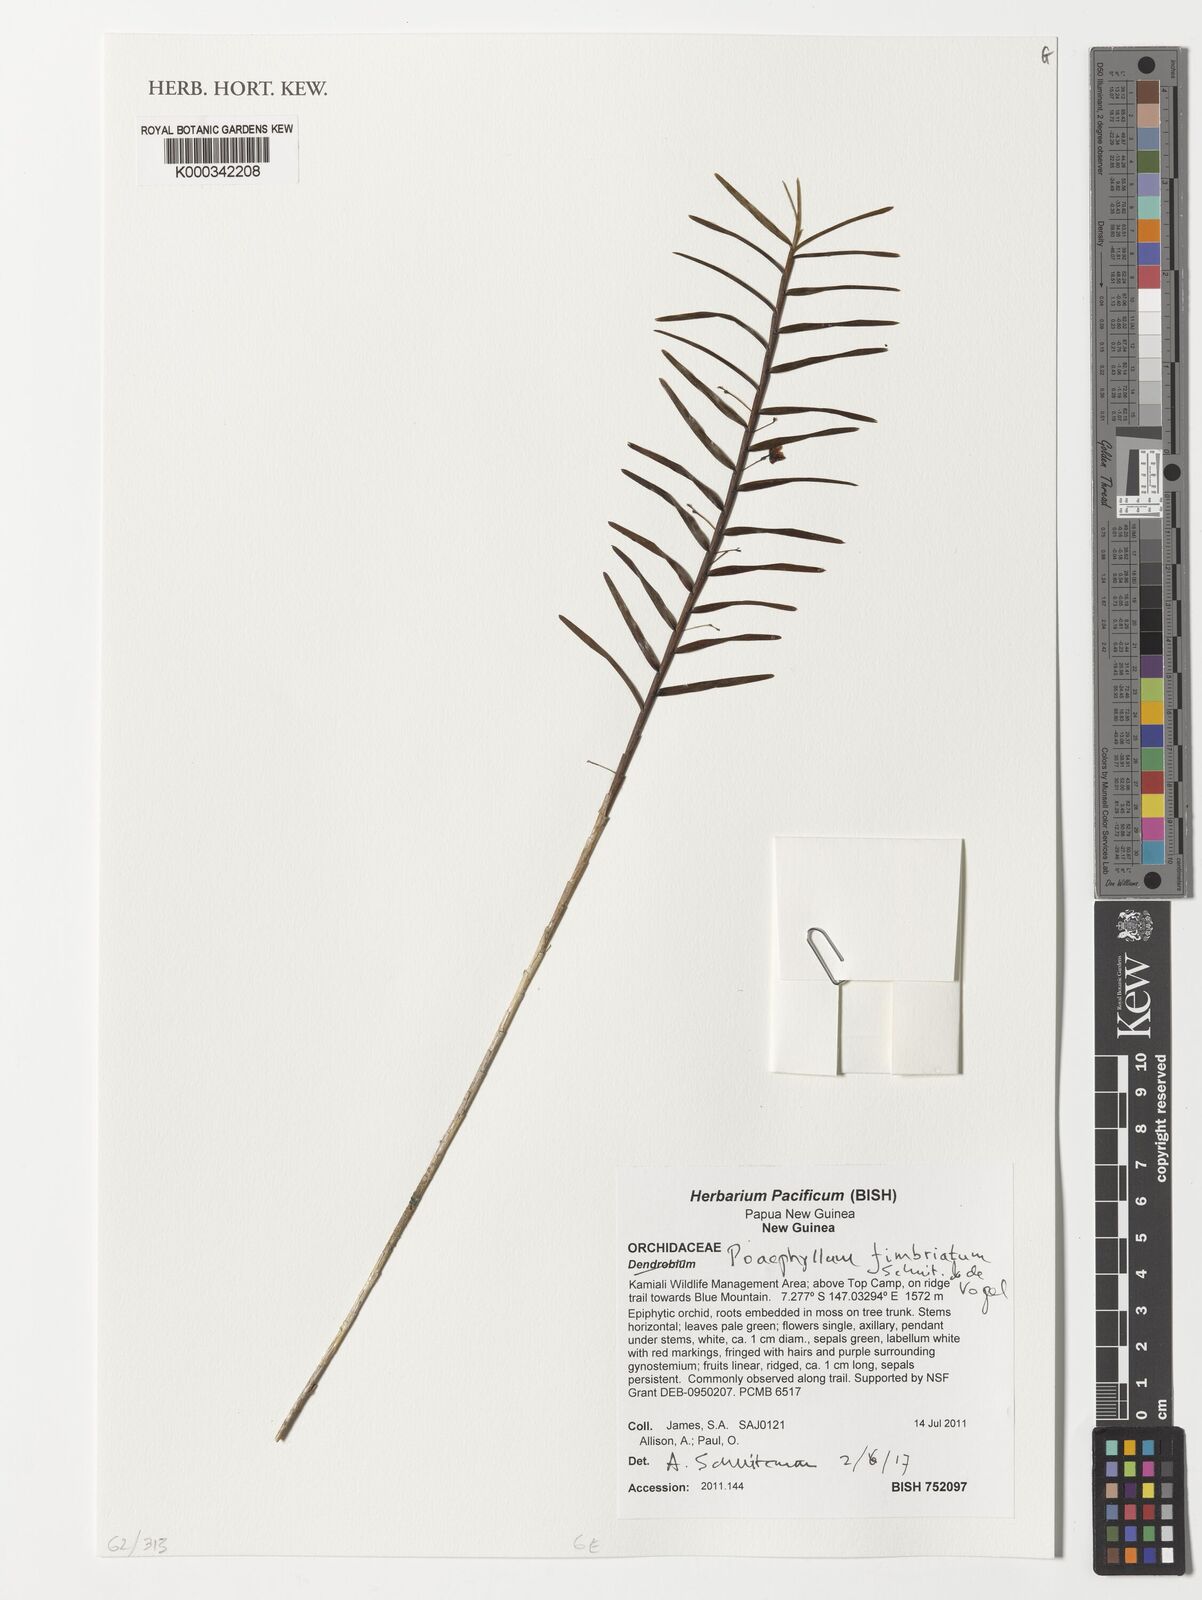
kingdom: Plantae
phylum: Tracheophyta
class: Liliopsida
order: Asparagales
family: Orchidaceae
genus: Poaephyllum
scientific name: Poaephyllum fimbriatum
